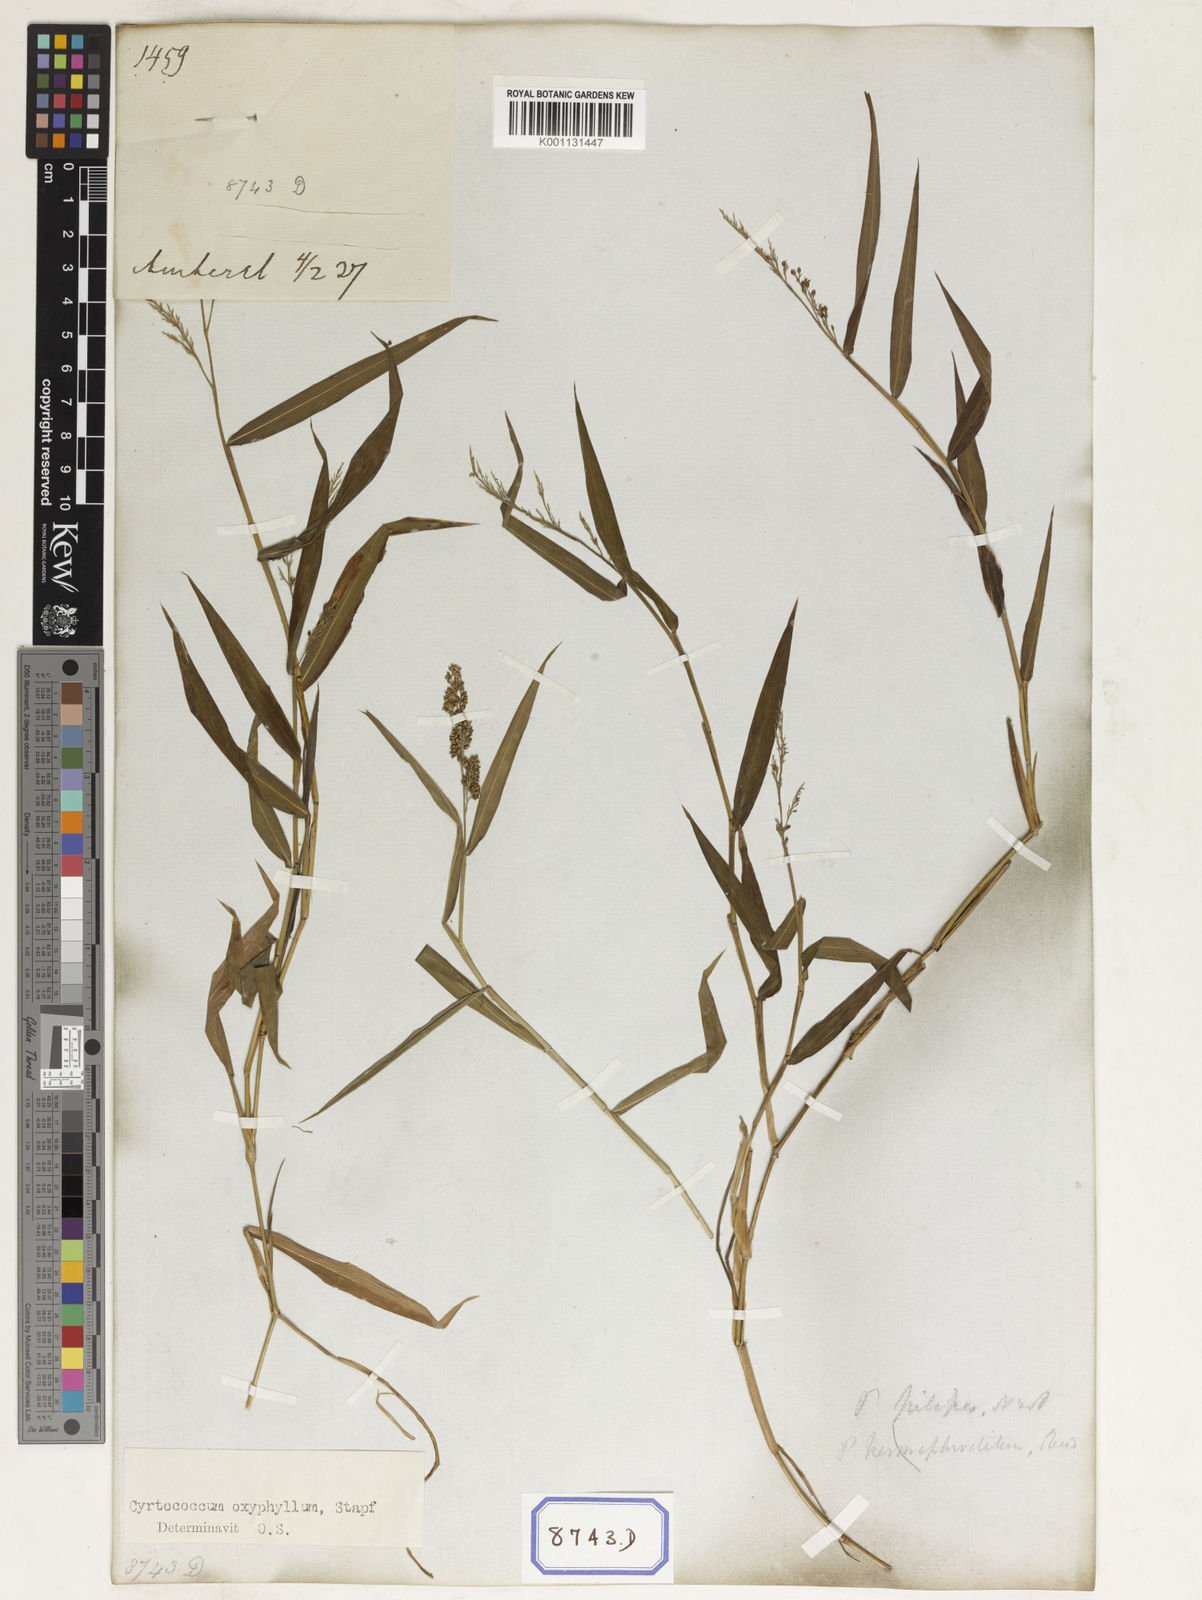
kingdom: Plantae
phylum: Tracheophyta
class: Liliopsida
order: Poales
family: Poaceae
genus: Panicum
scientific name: Panicum
